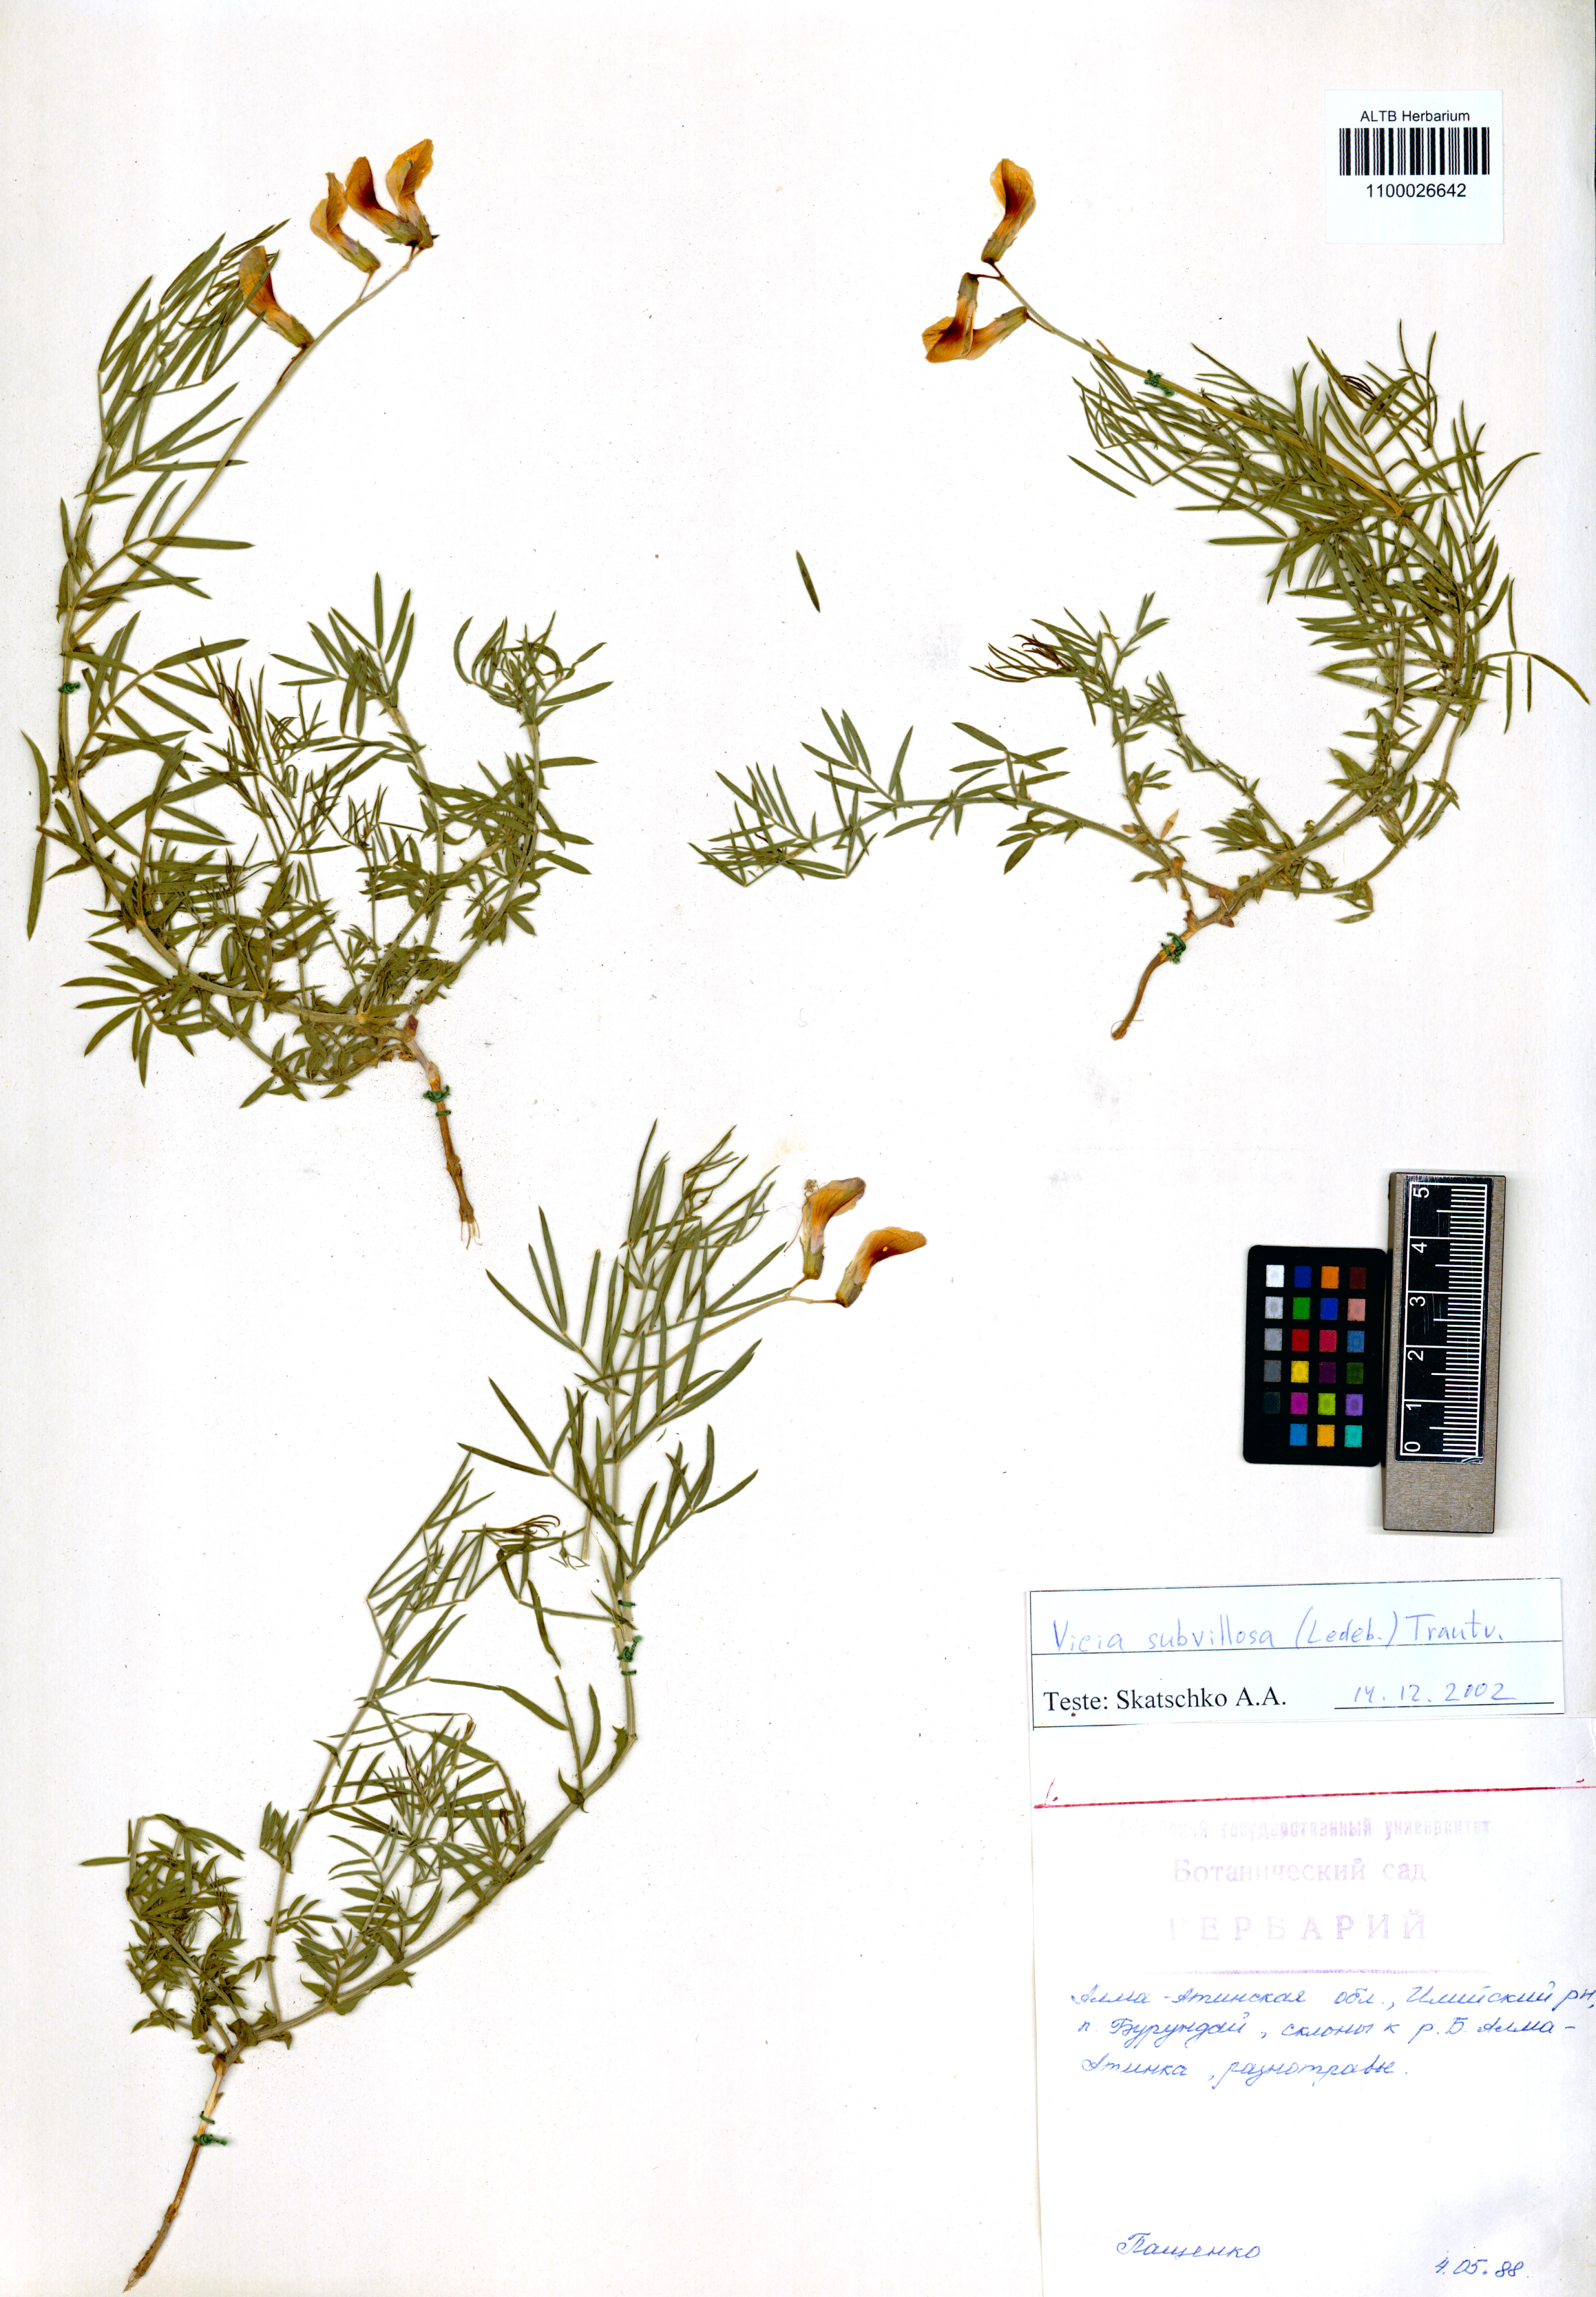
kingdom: Plantae
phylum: Tracheophyta
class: Magnoliopsida
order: Fabales
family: Fabaceae
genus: Vicia
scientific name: Vicia subvillosa
